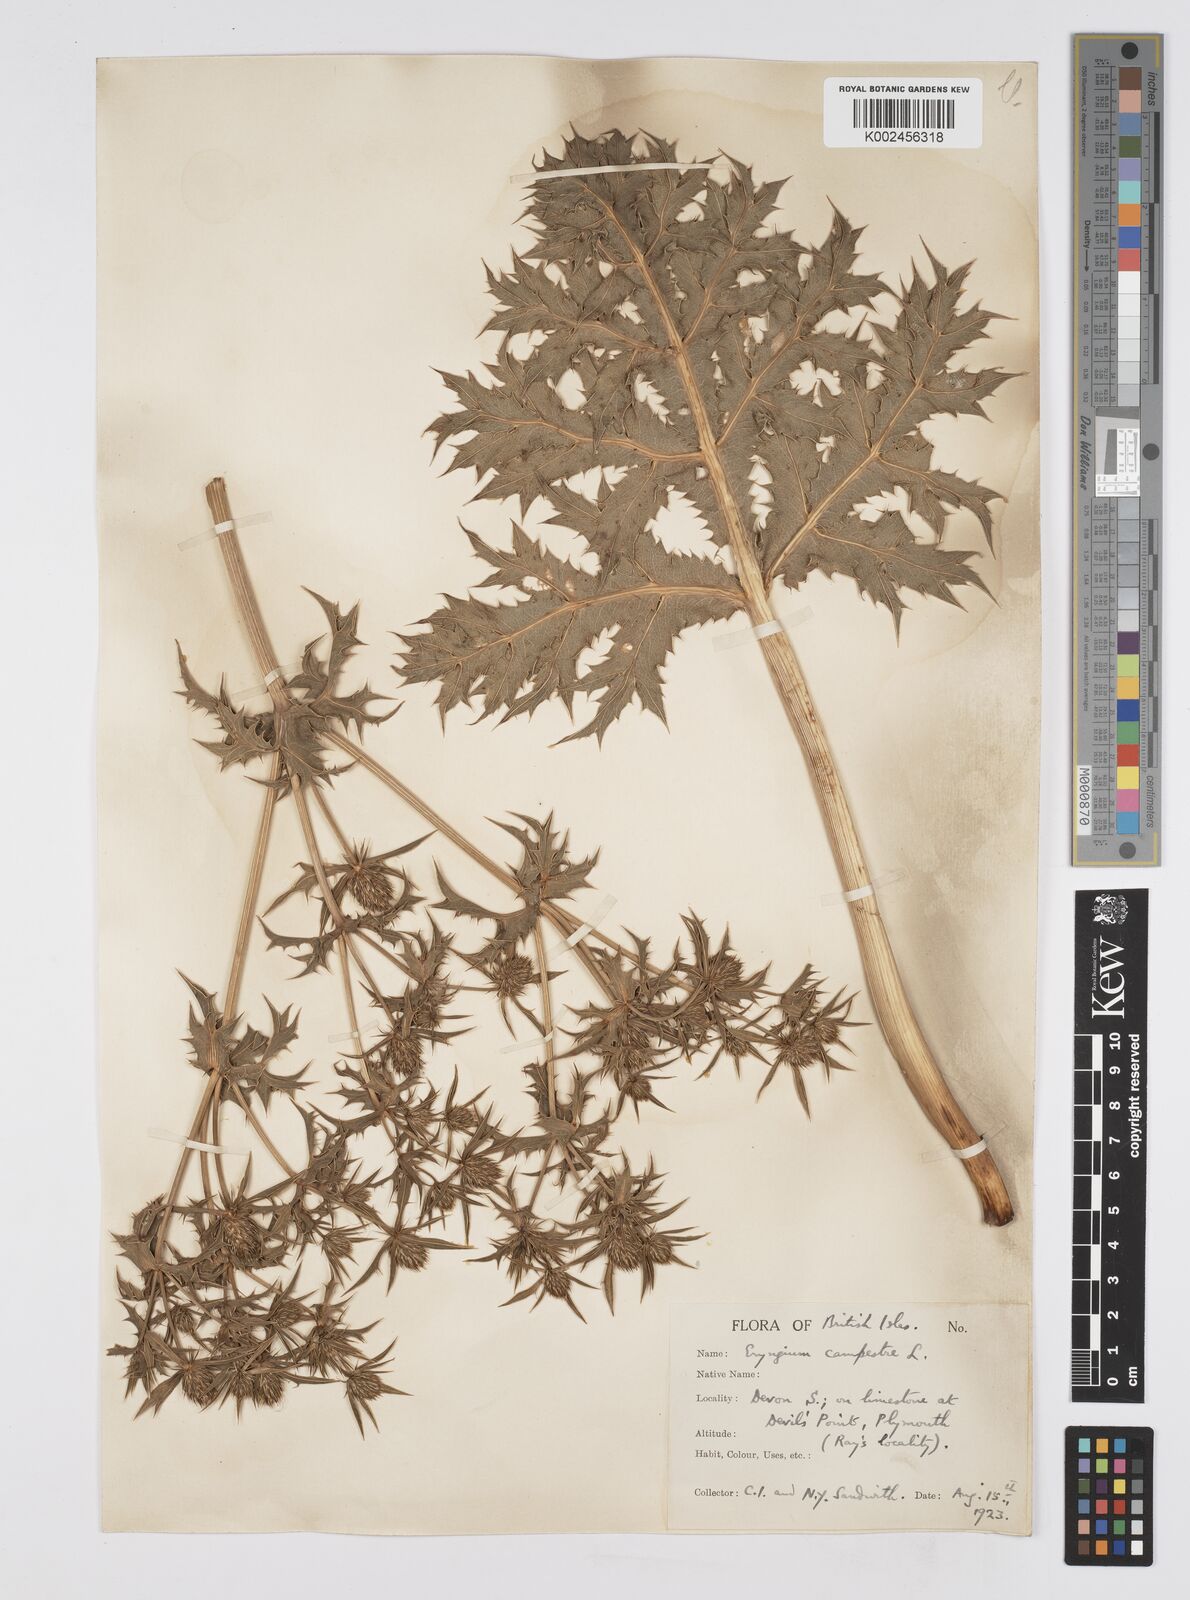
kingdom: Plantae
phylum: Tracheophyta
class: Magnoliopsida
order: Apiales
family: Apiaceae
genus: Eryngium
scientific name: Eryngium campestre
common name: Field eryngo
